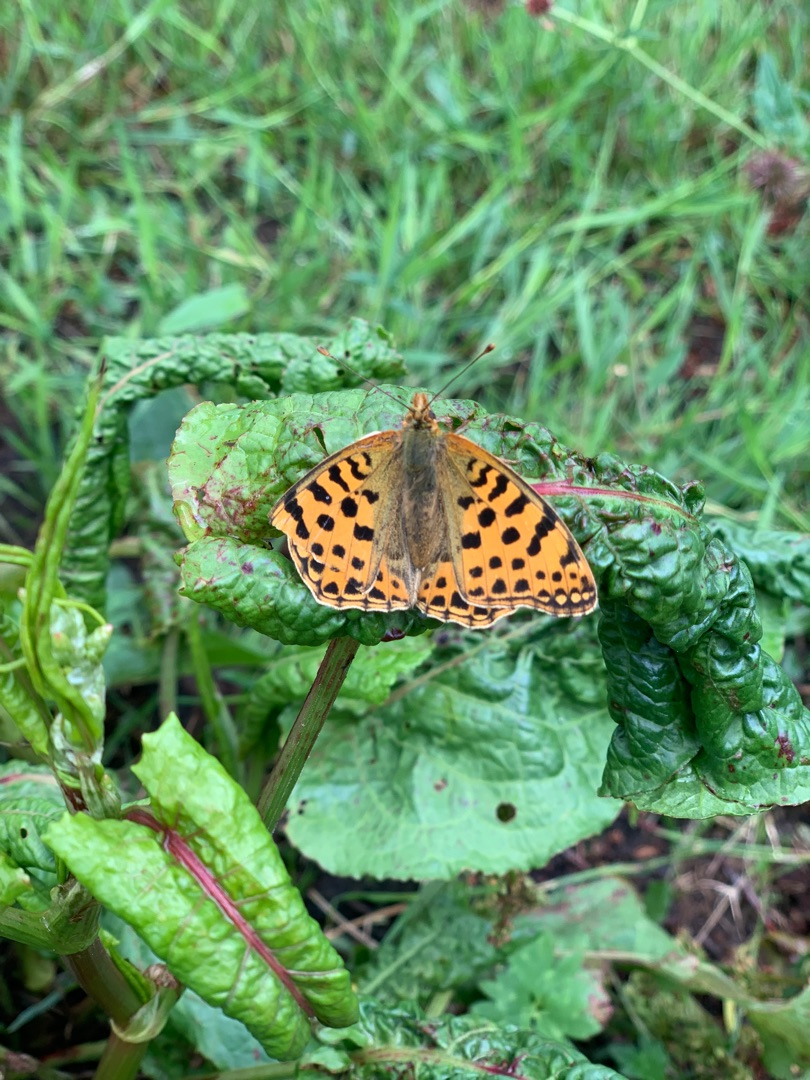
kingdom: Animalia
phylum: Arthropoda
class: Insecta
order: Lepidoptera
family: Nymphalidae
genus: Issoria
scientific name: Issoria lathonia
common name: Storplettet perlemorsommerfugl
